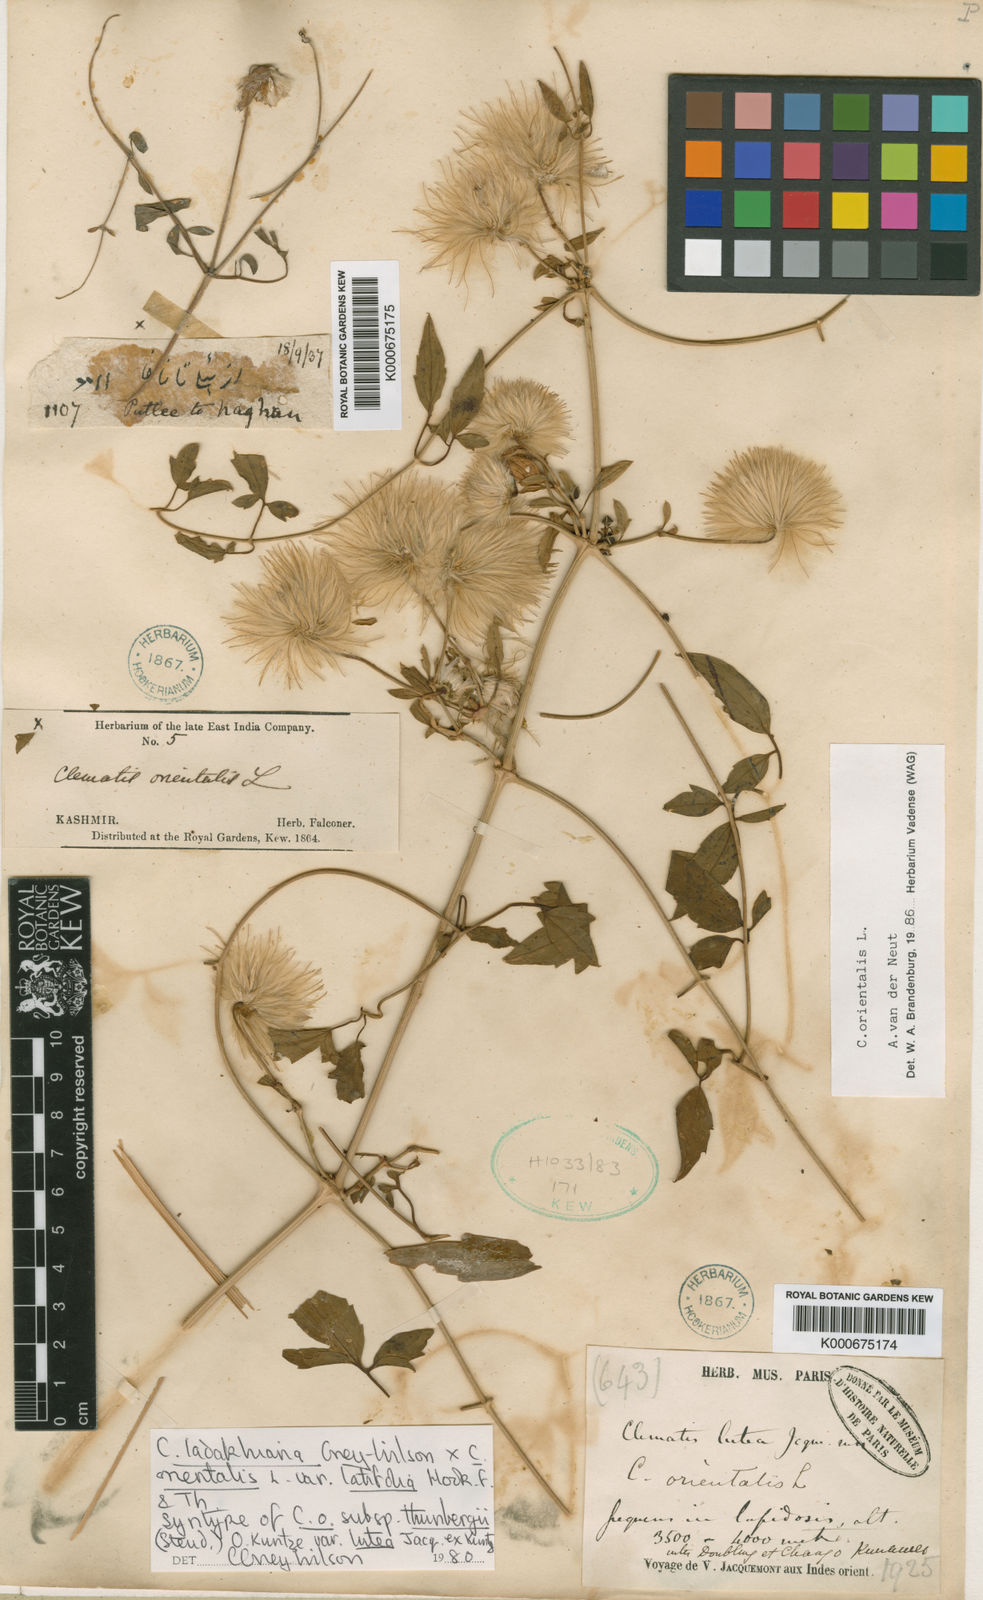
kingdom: Plantae
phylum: Tracheophyta
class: Magnoliopsida
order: Ranunculales
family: Ranunculaceae
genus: Clematis
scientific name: Clematis orientalis
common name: Oriental virgin's-bower
